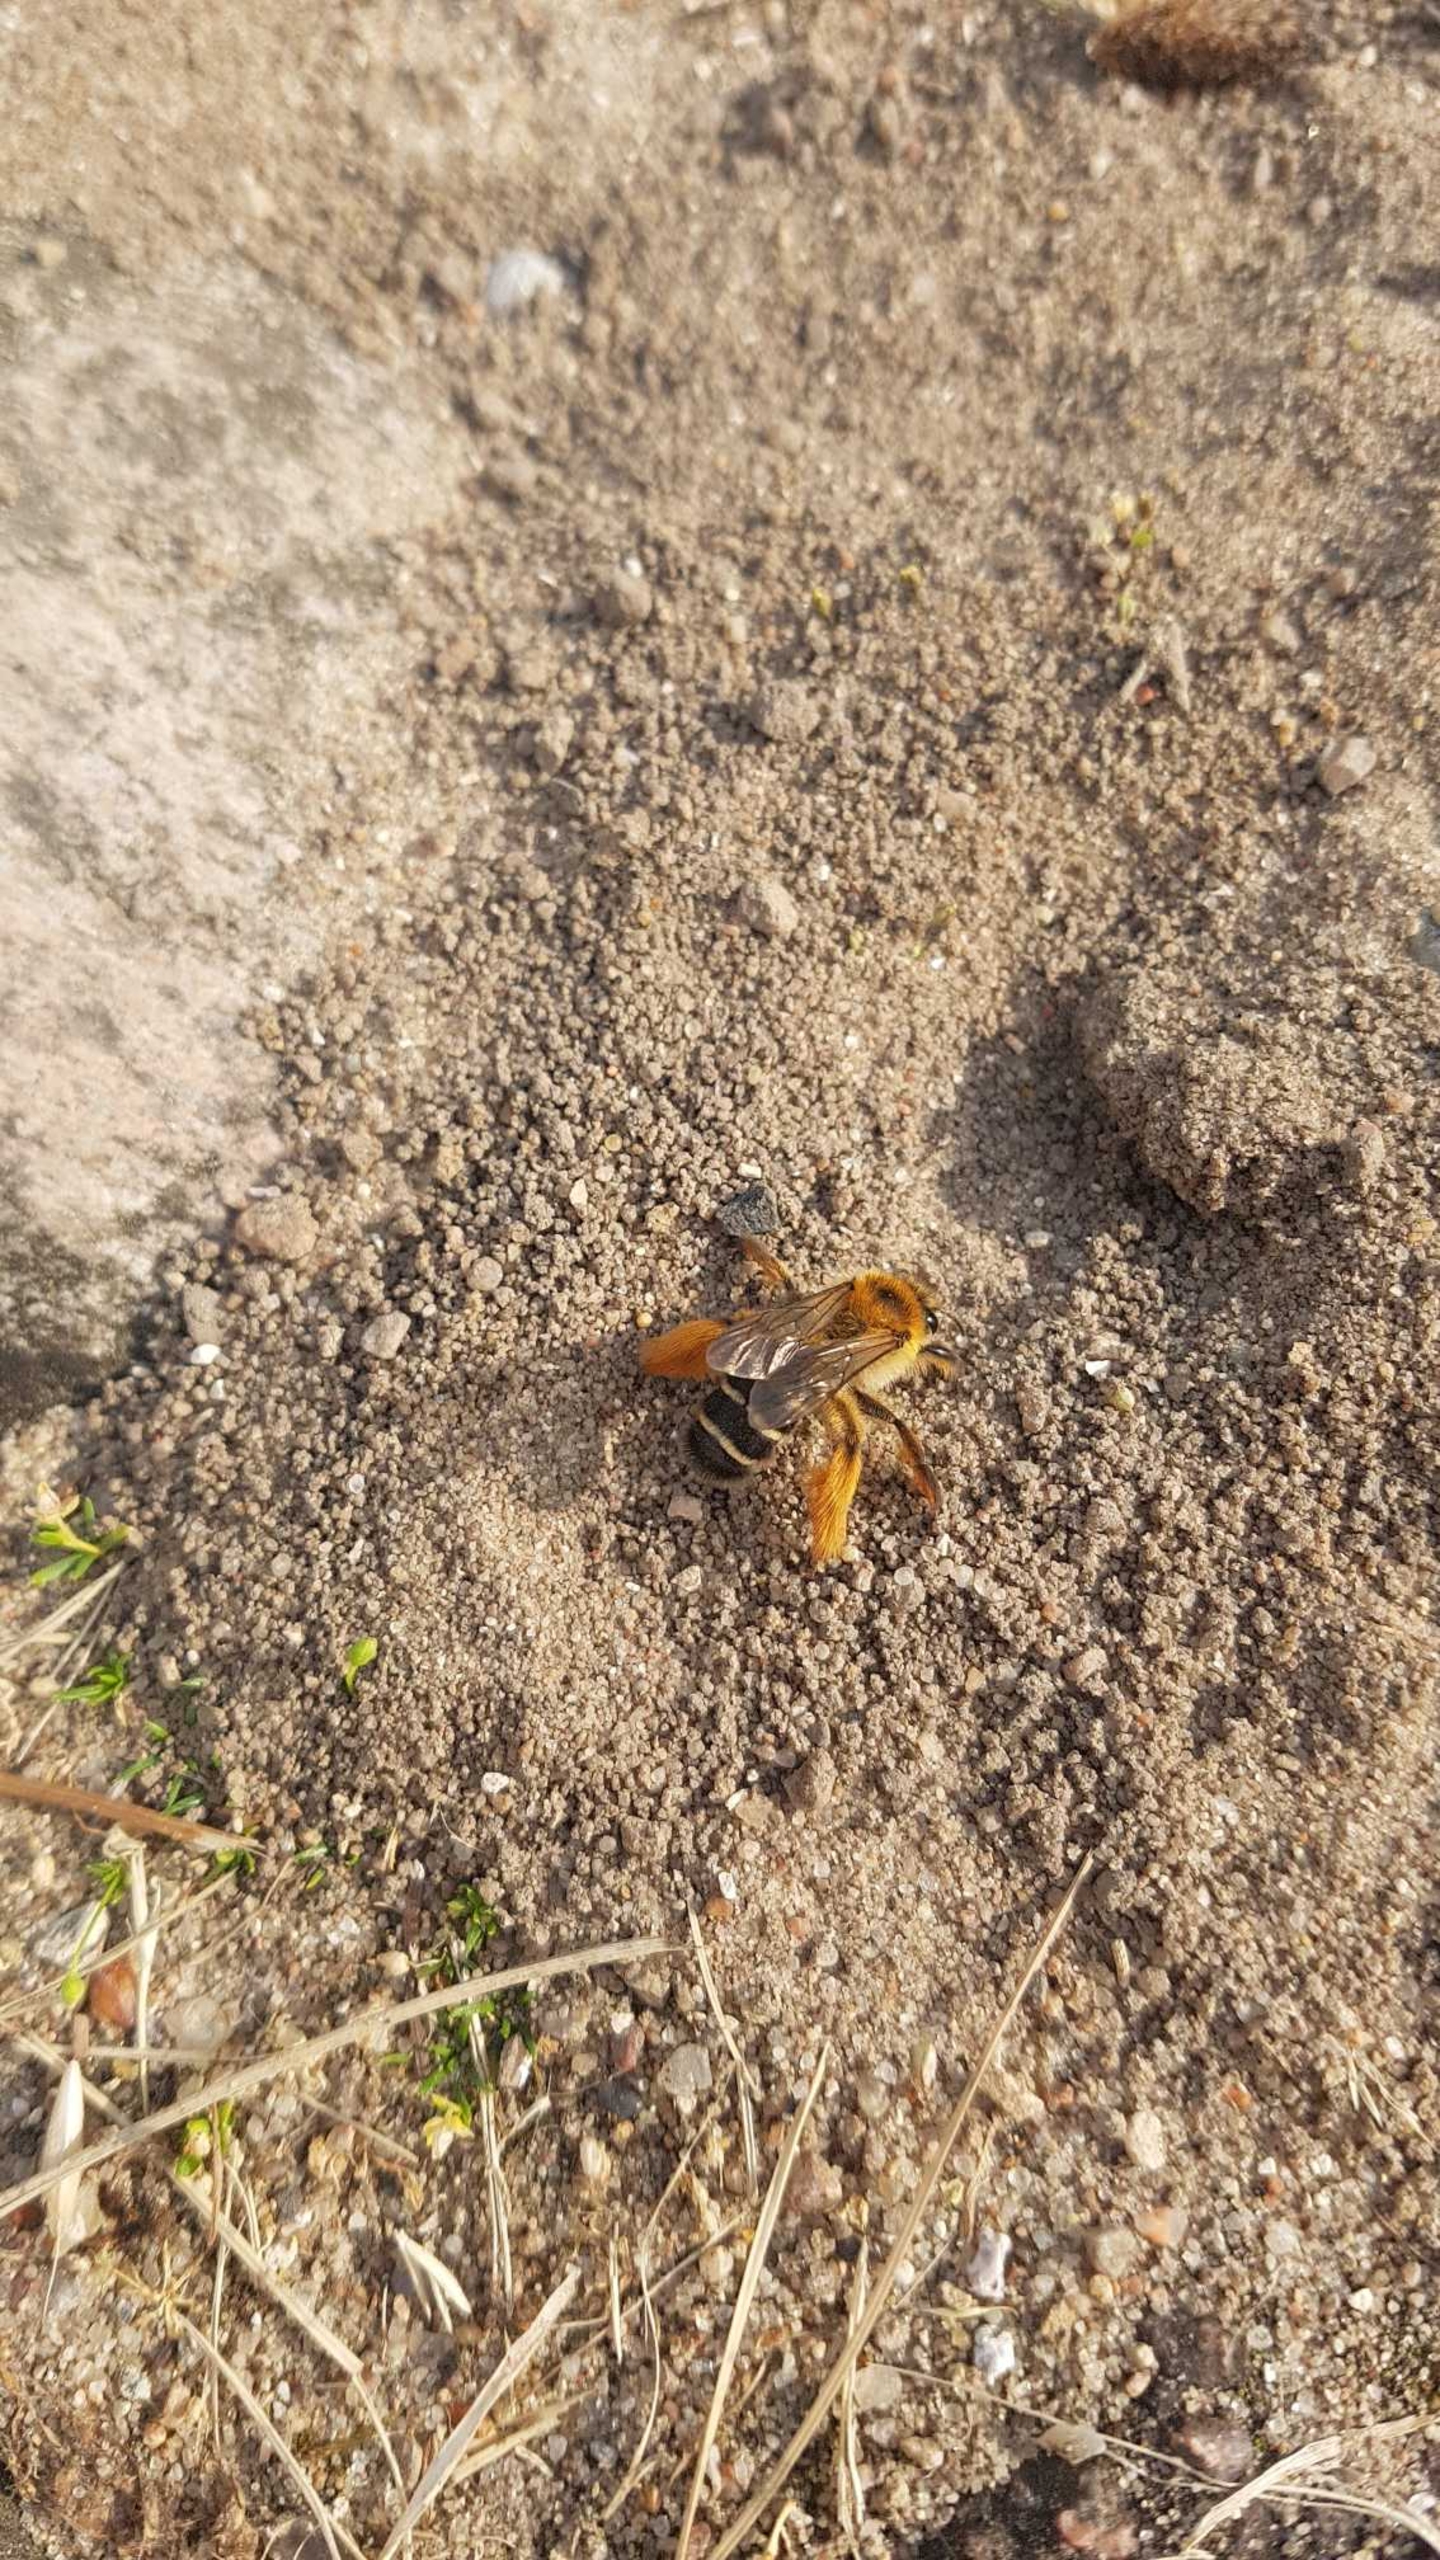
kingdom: Animalia
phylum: Arthropoda
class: Insecta
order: Hymenoptera
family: Melittidae
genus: Dasypoda
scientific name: Dasypoda hirtipes
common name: Pragtbuksebi
